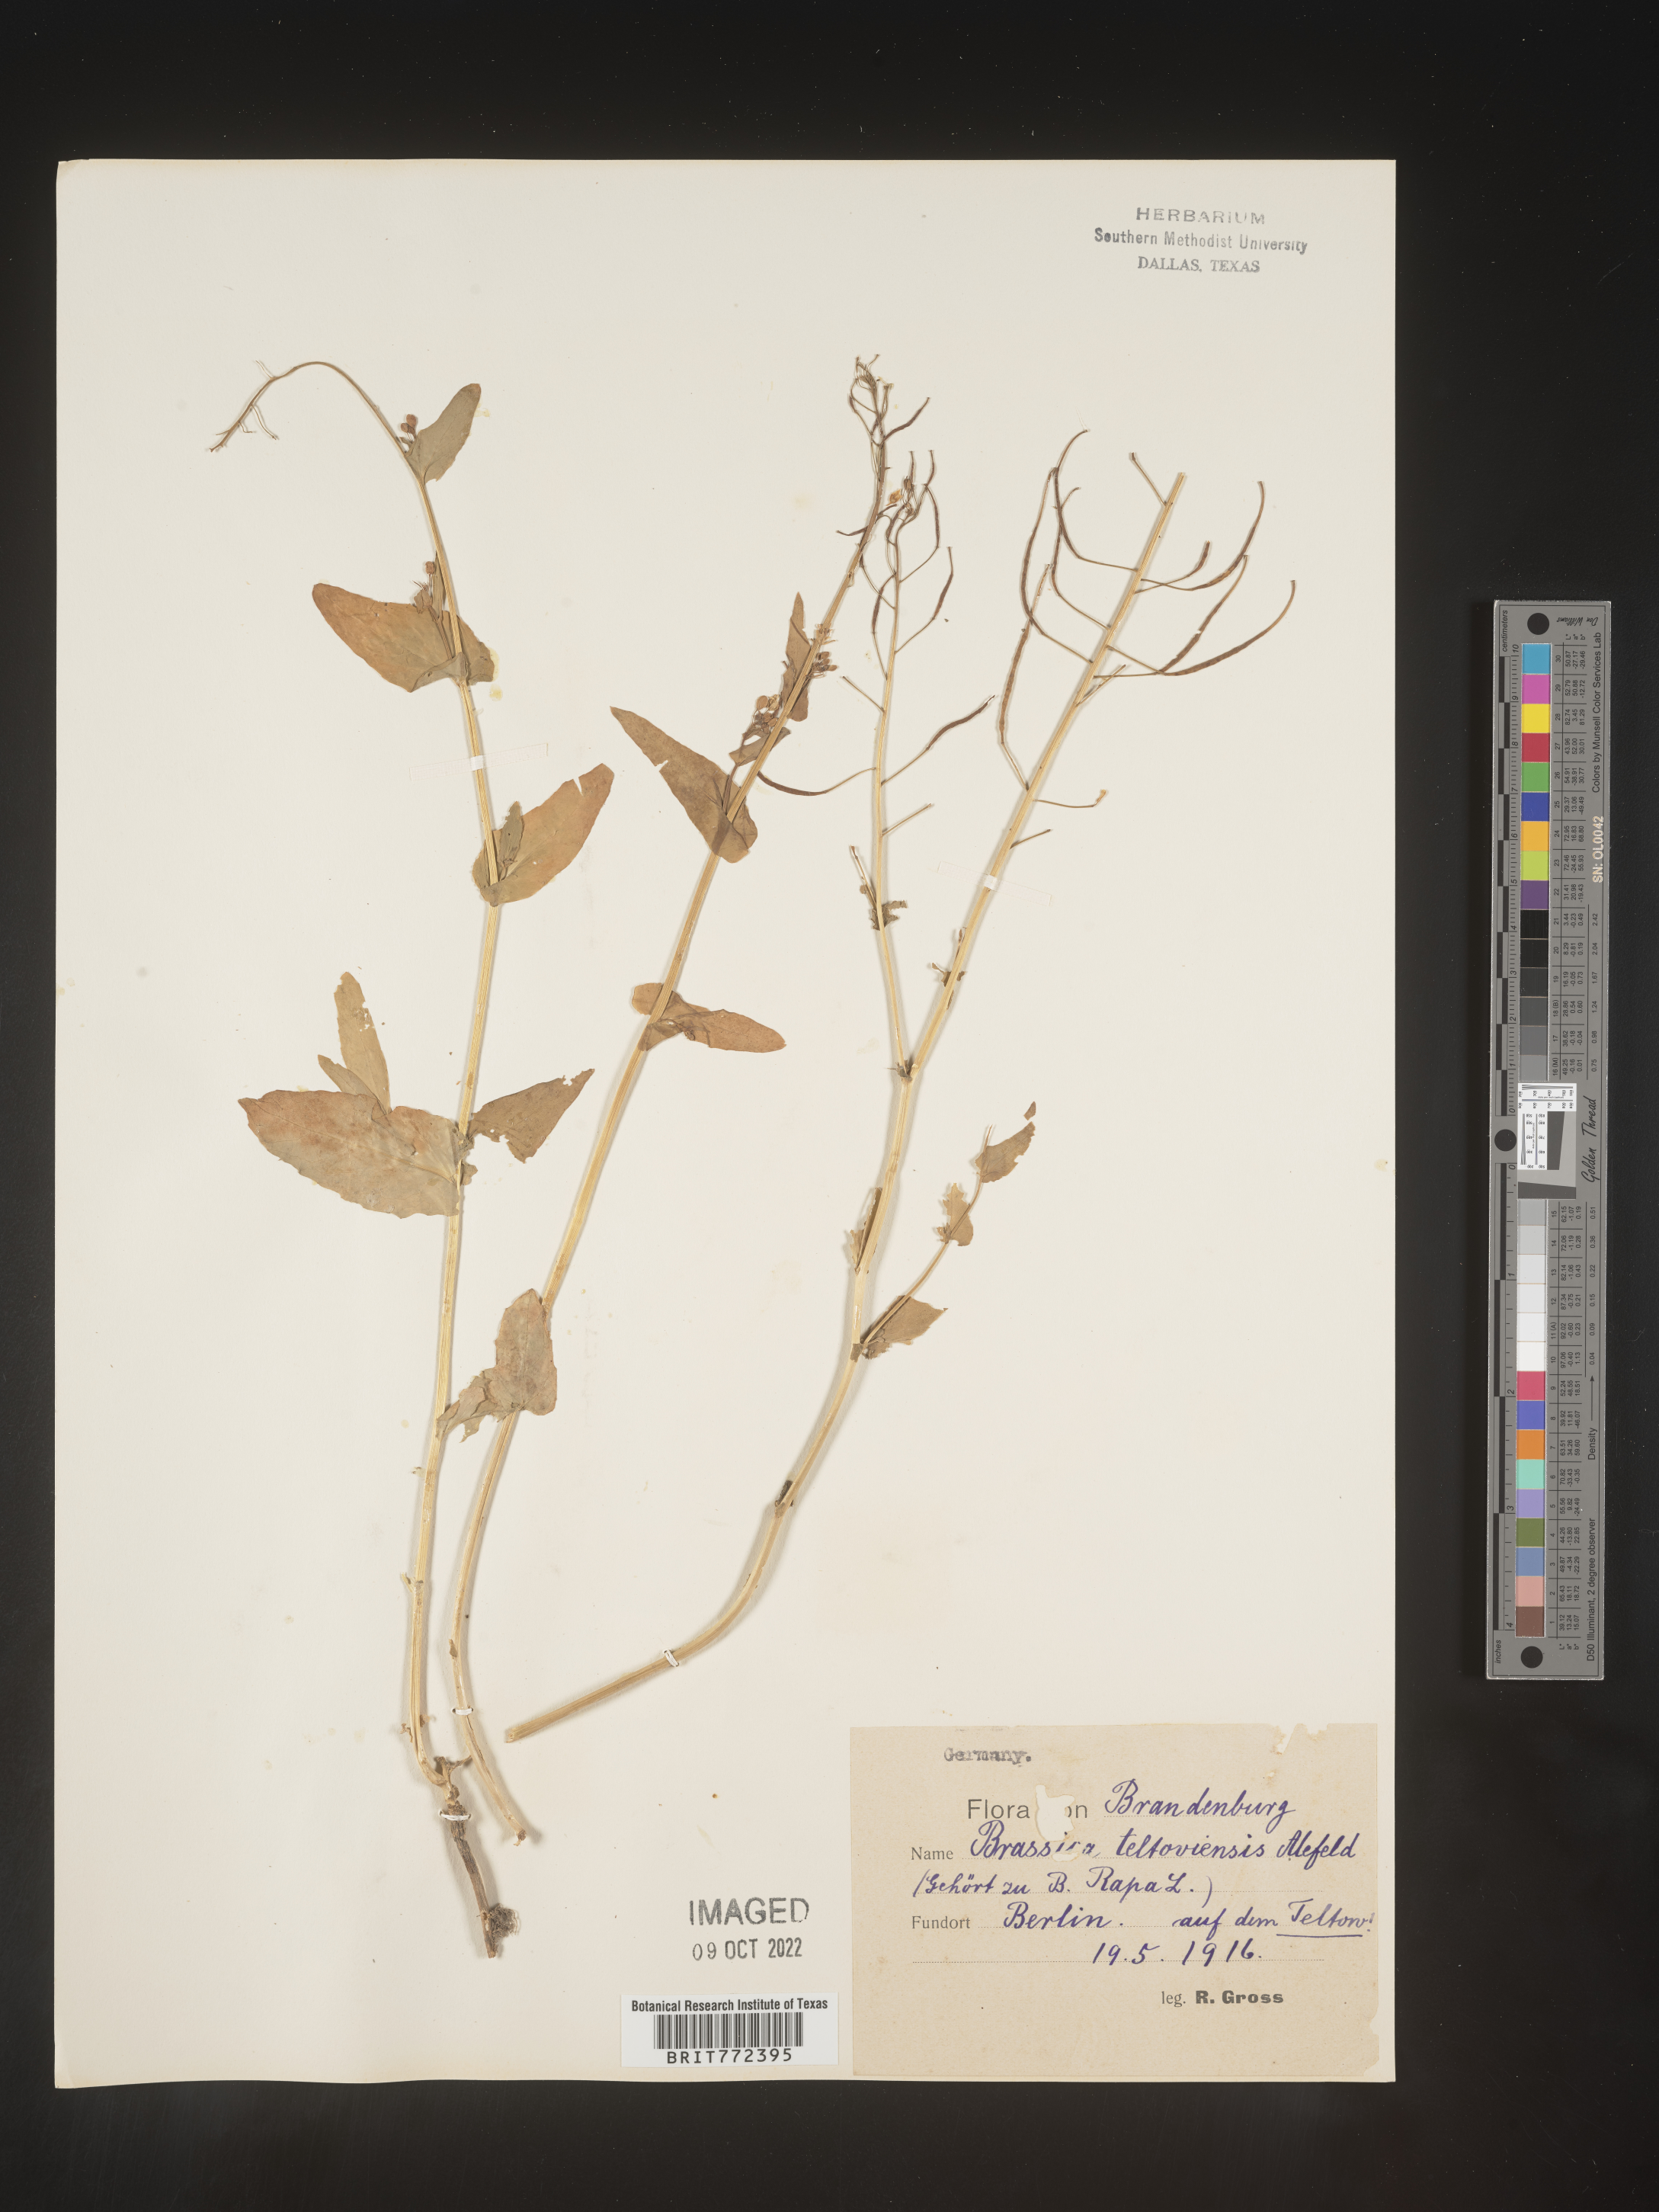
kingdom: Plantae
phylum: Tracheophyta
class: Magnoliopsida
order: Brassicales
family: Brassicaceae
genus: Brassica
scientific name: Brassica
